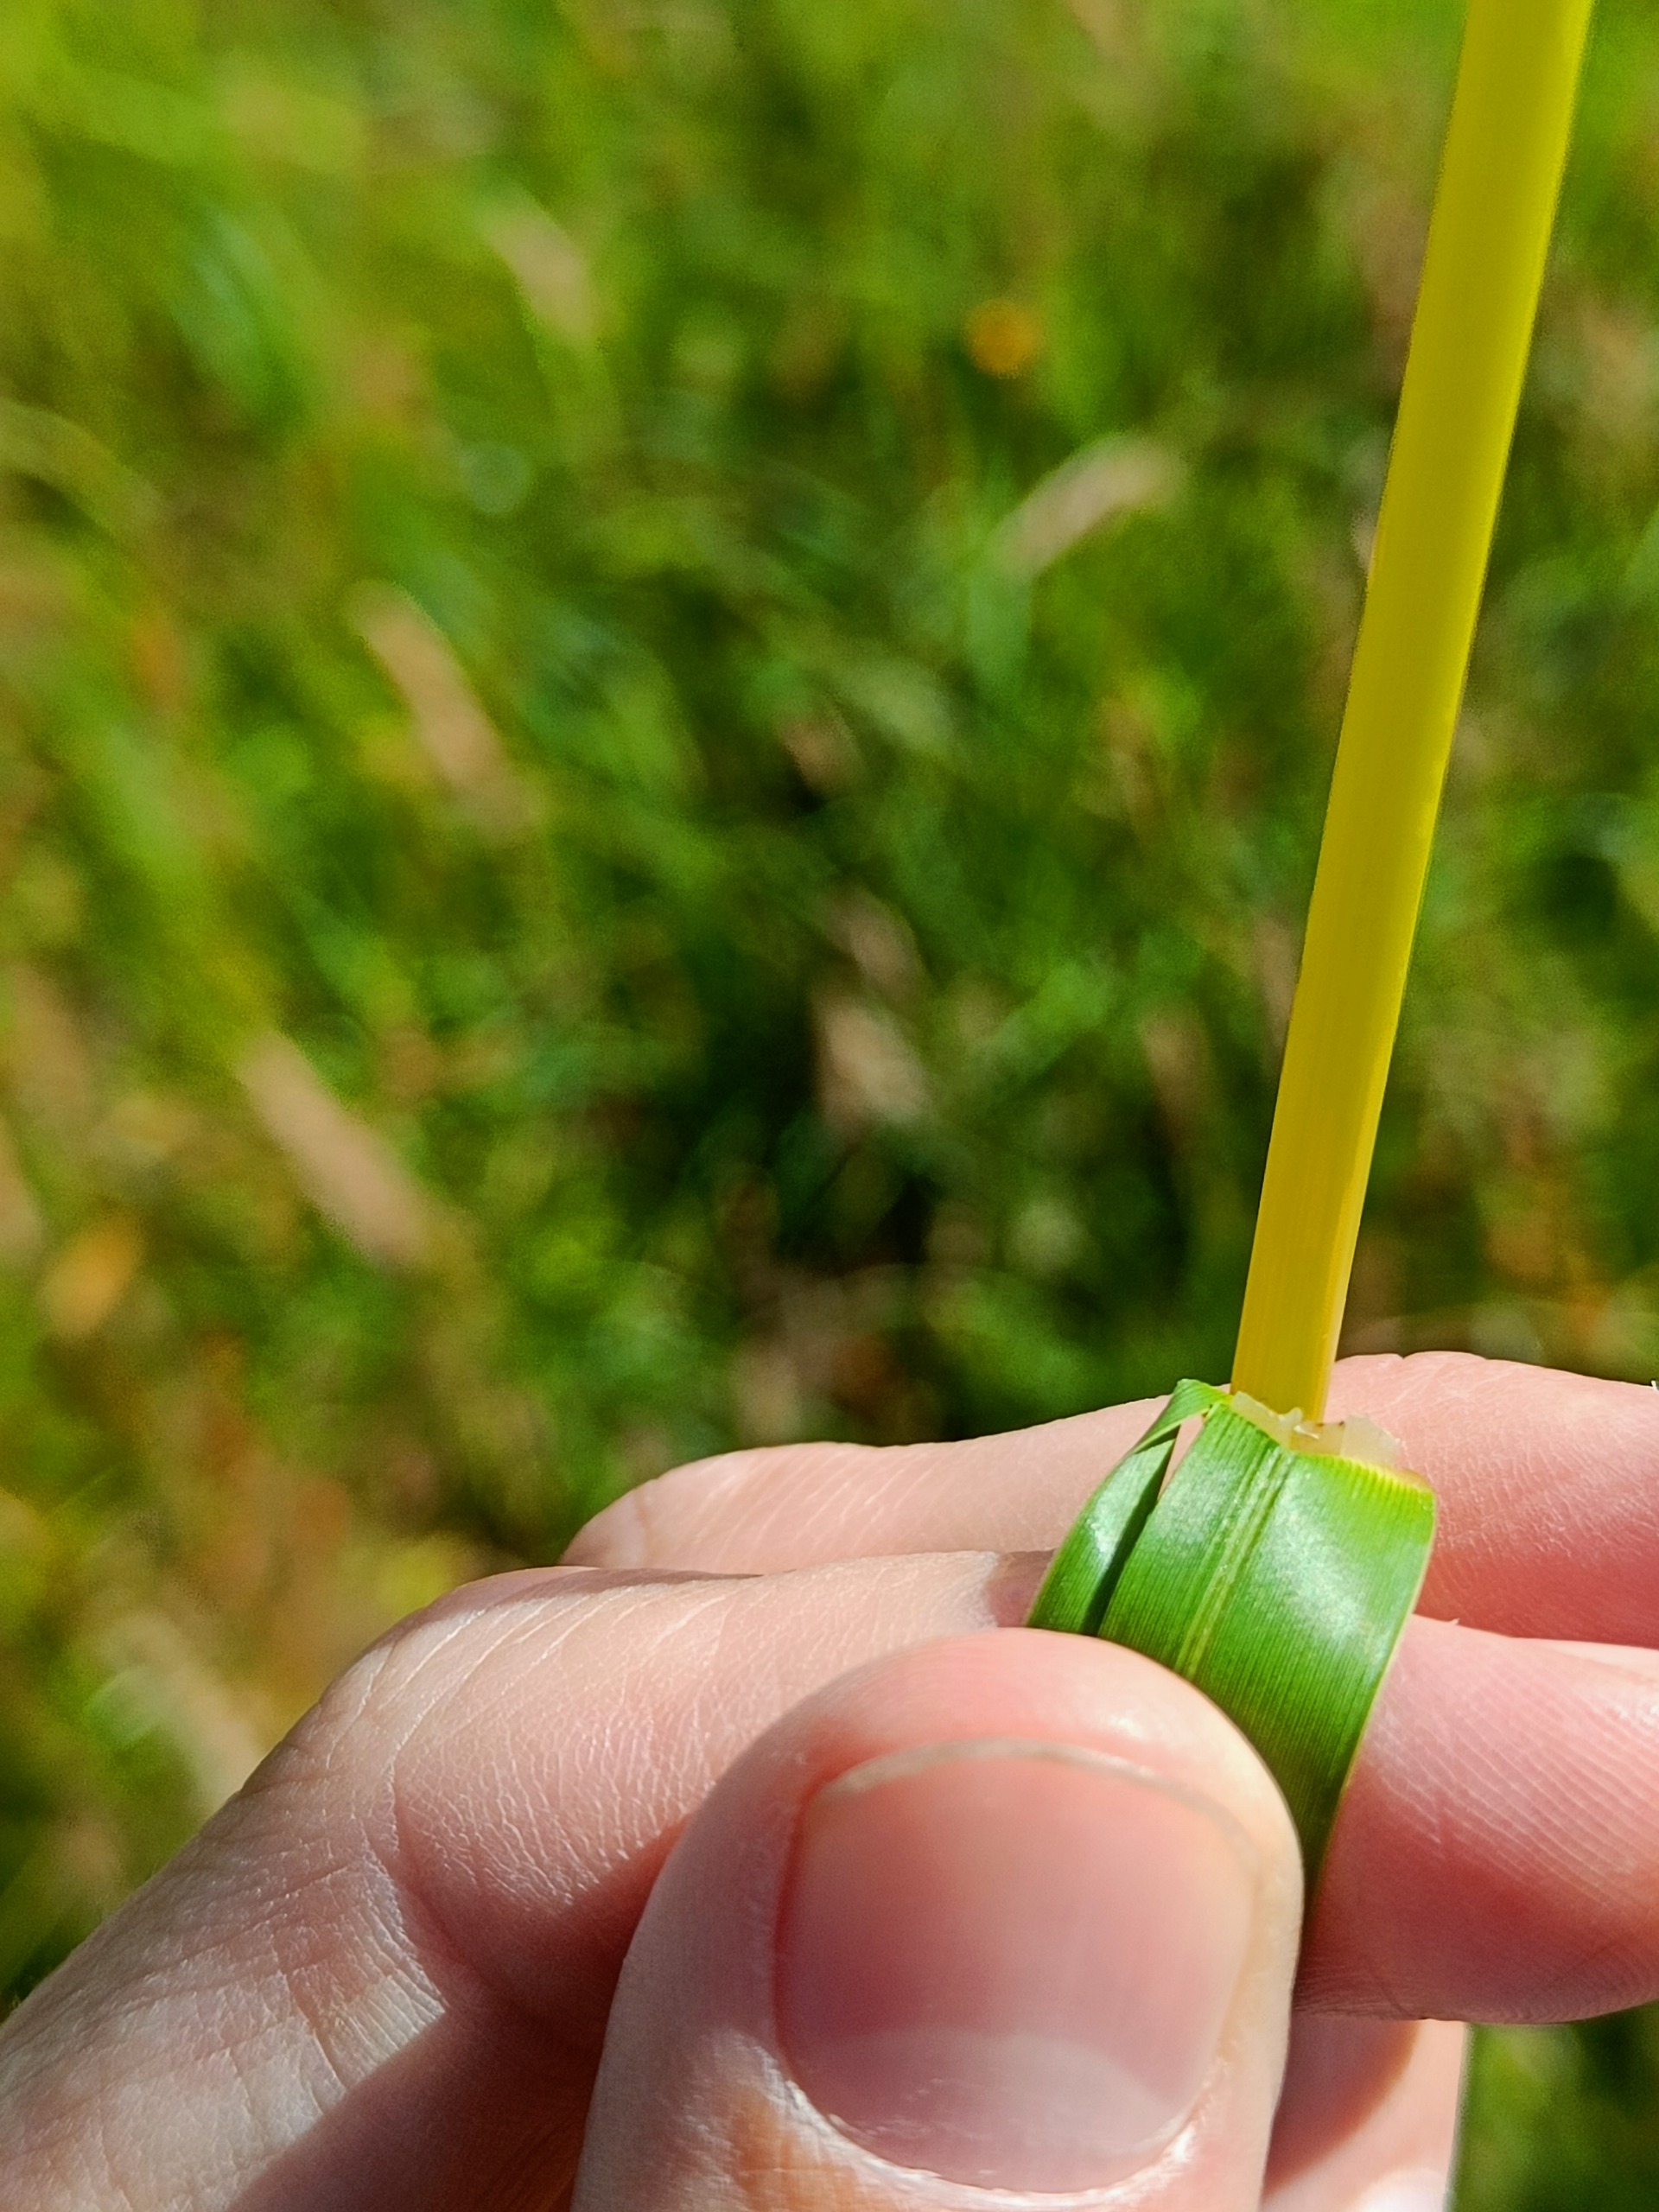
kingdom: Plantae
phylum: Tracheophyta
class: Liliopsida
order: Poales
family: Poaceae
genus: Glyceria
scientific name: Glyceria maxima
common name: Høj sødgræs
